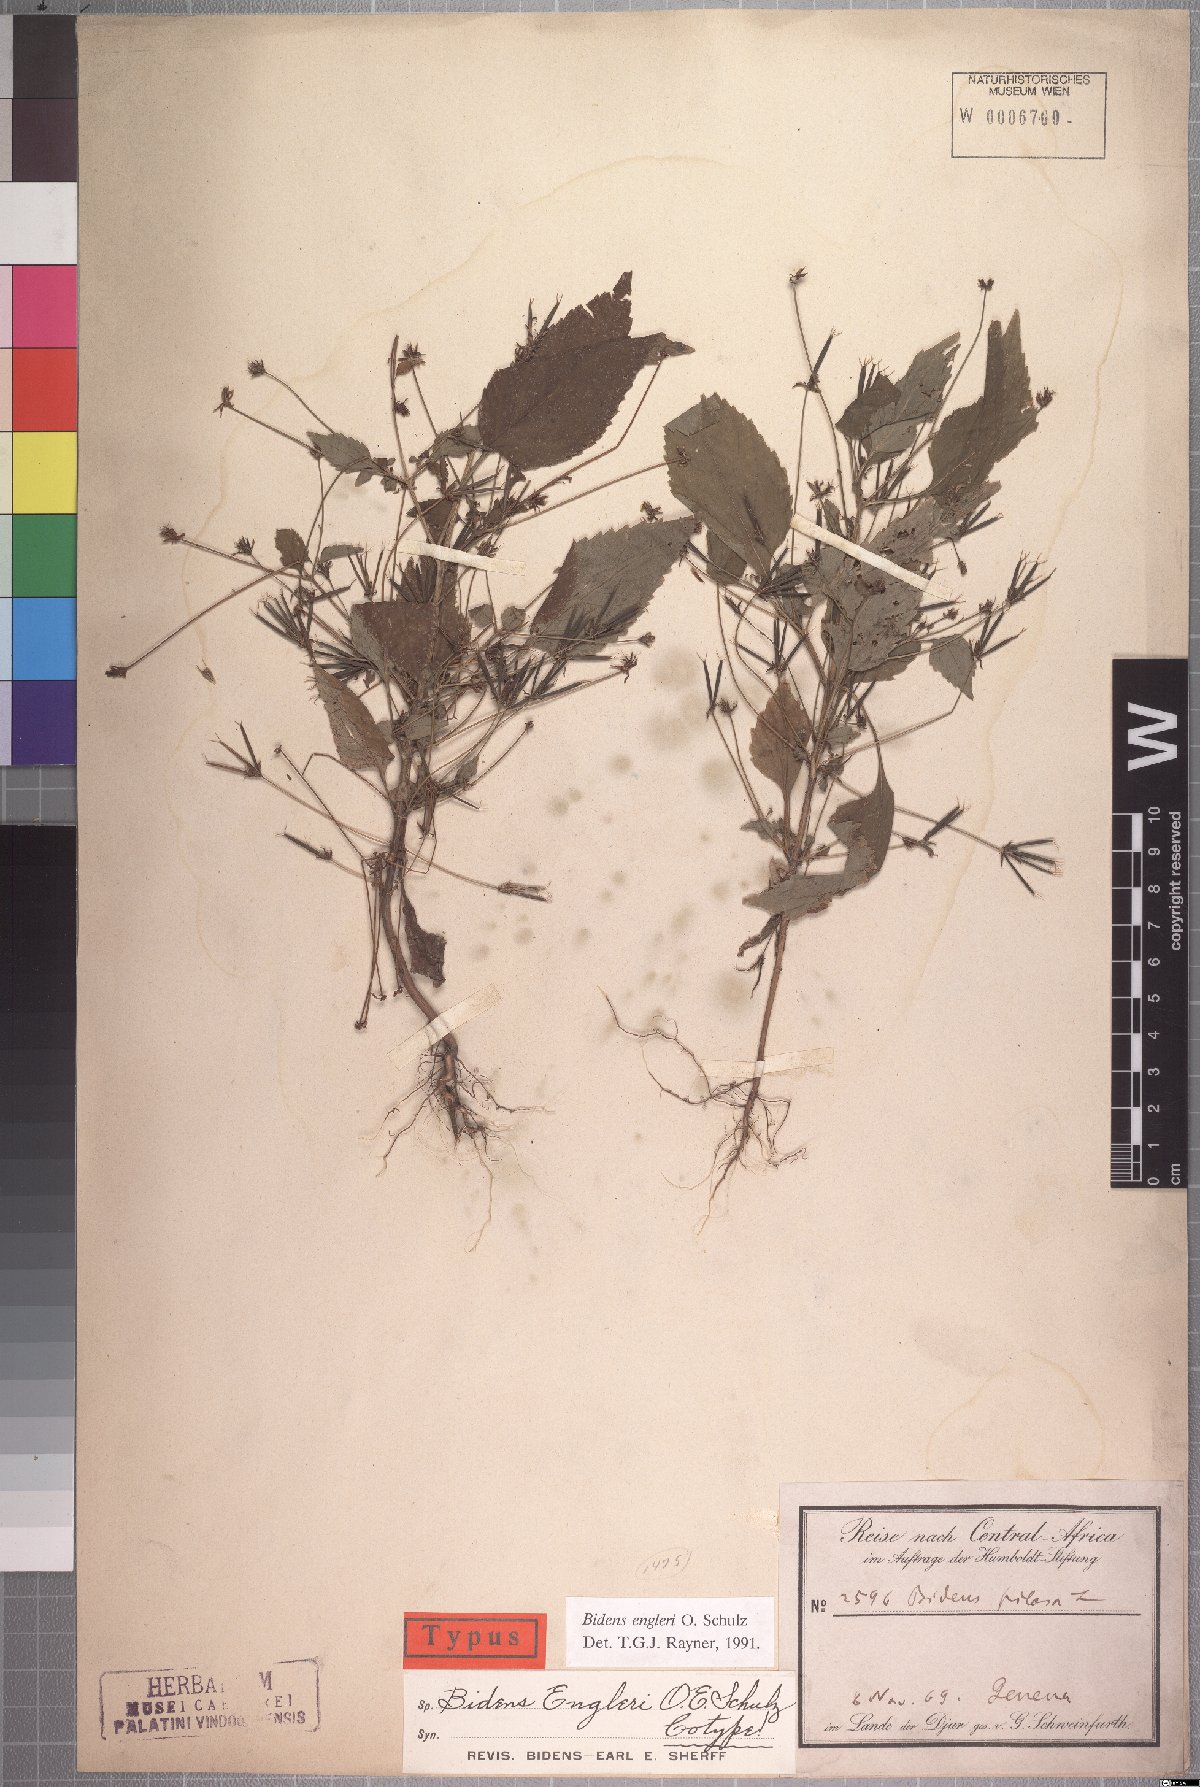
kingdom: Plantae
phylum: Tracheophyta
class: Magnoliopsida
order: Asterales
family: Asteraceae
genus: Bidens
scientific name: Bidens engleri
